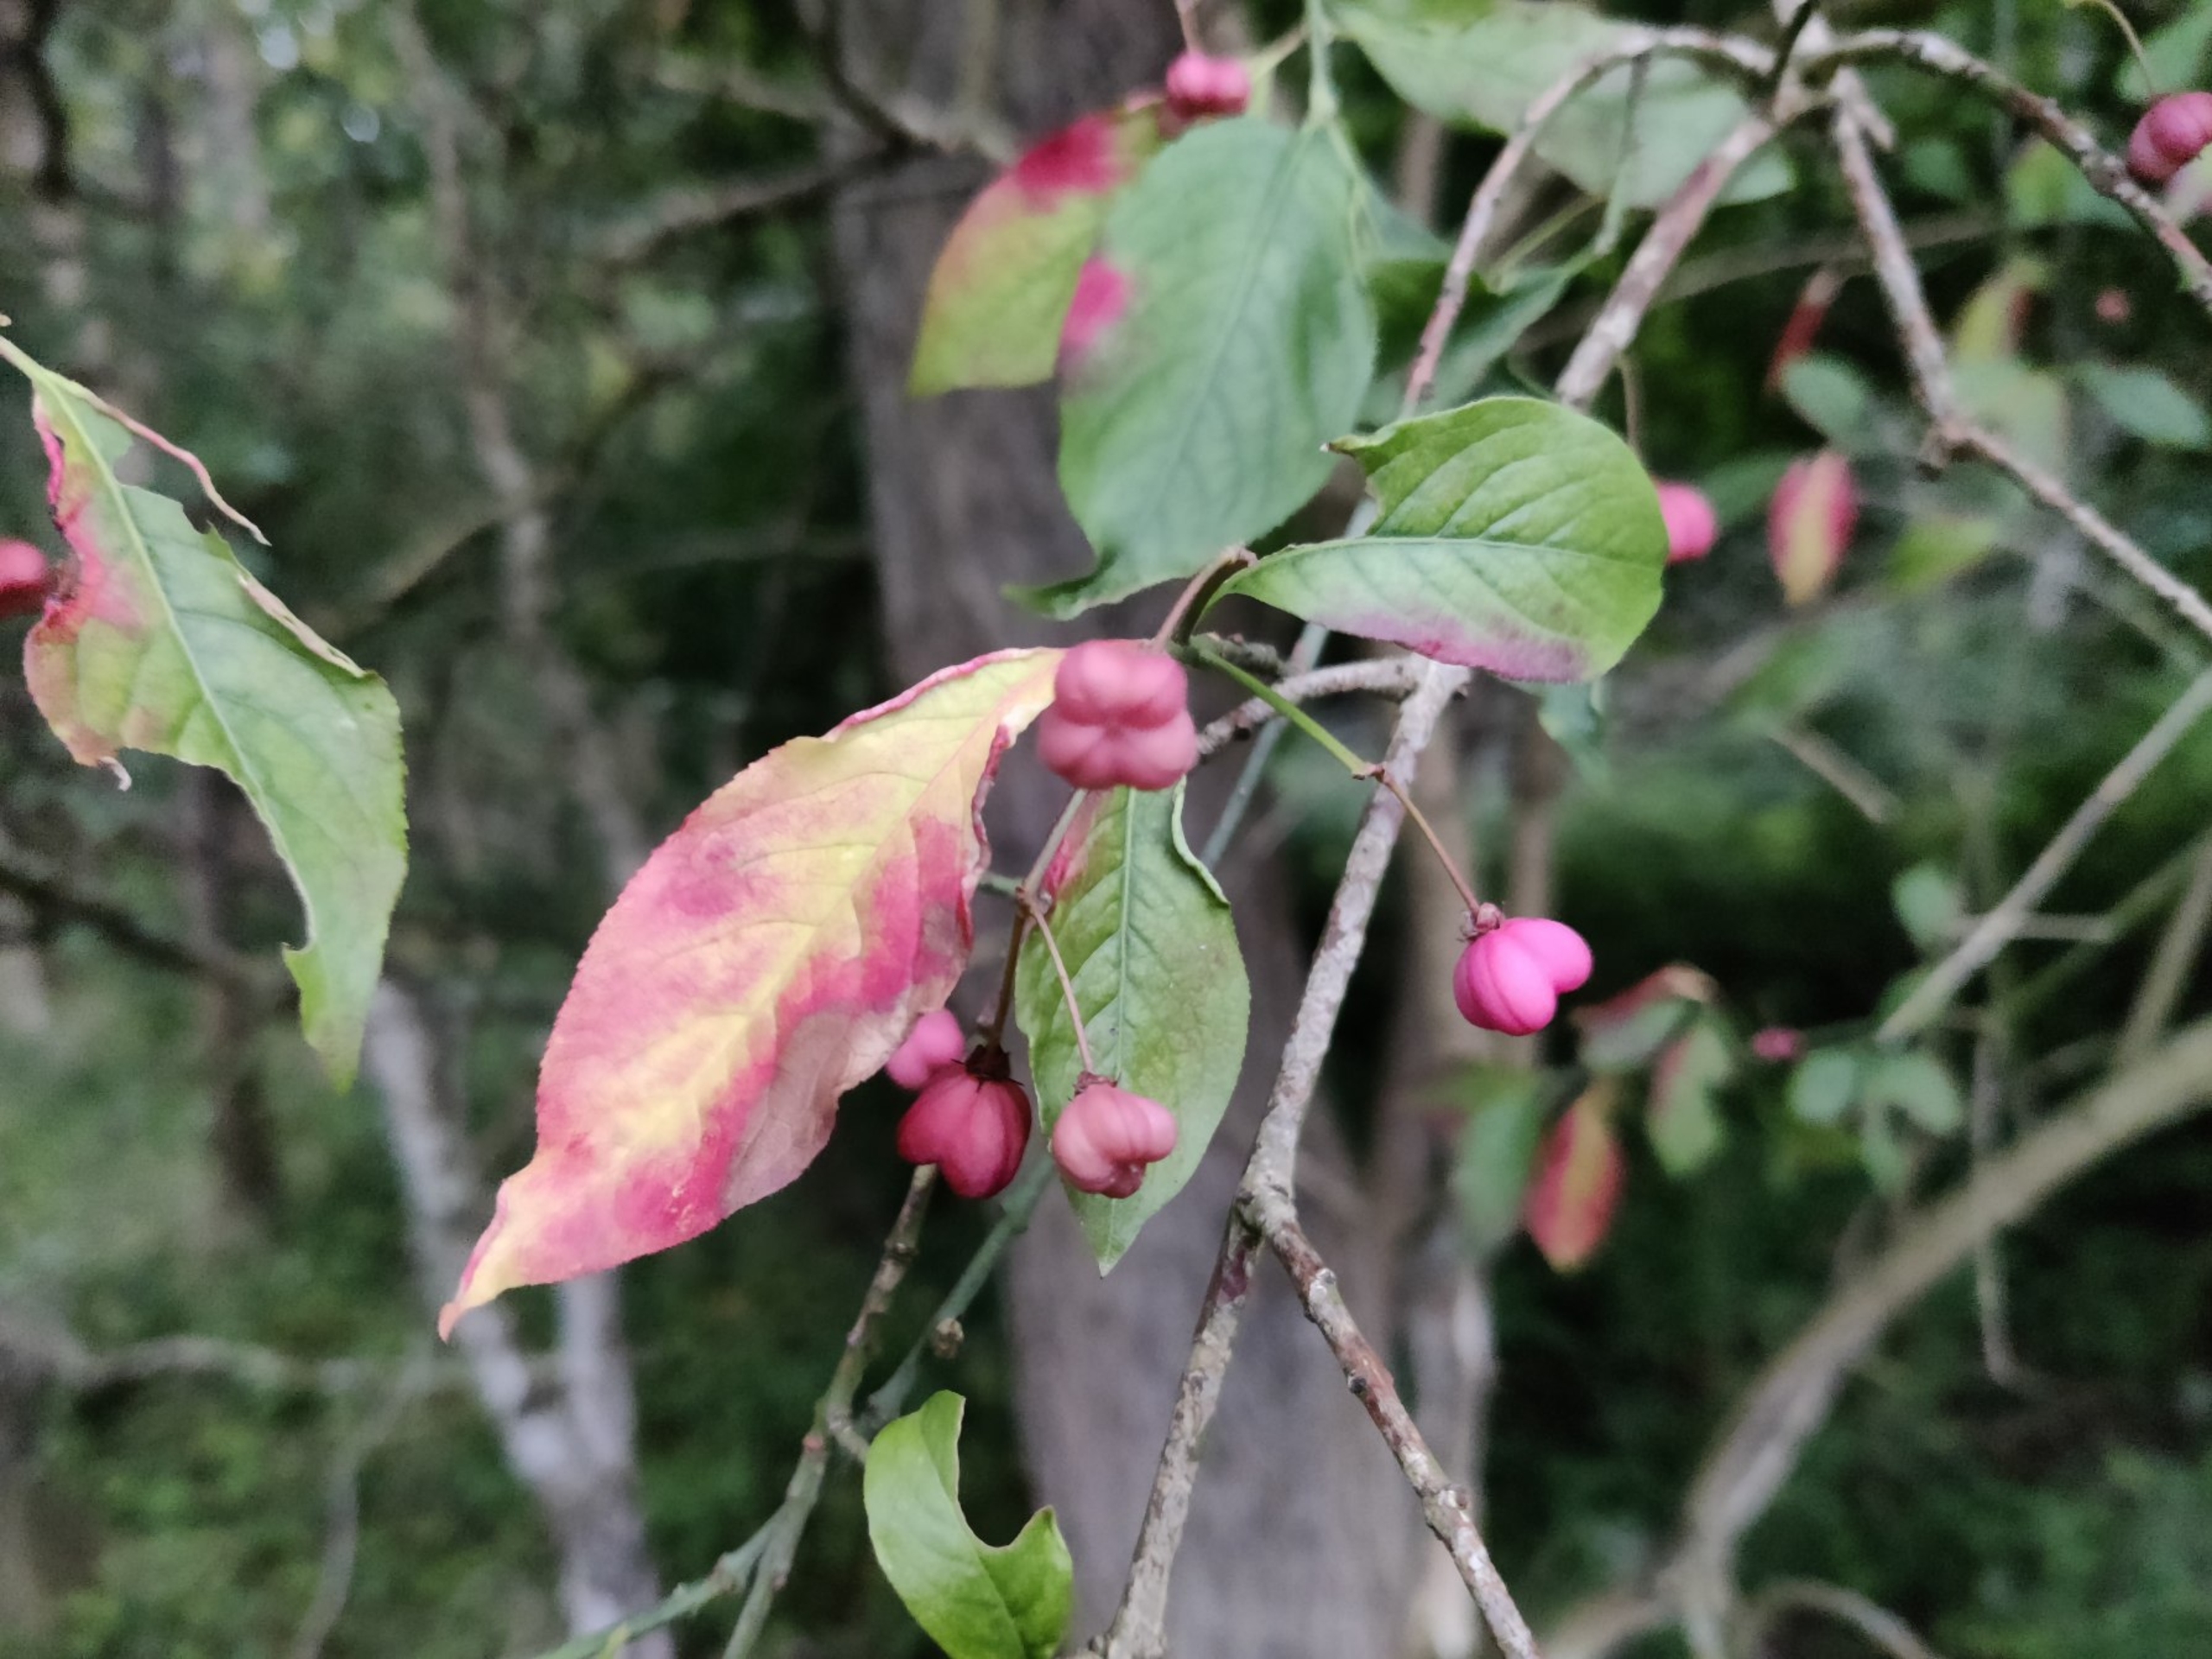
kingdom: Plantae
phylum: Tracheophyta
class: Magnoliopsida
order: Celastrales
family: Celastraceae
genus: Euonymus
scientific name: Euonymus europaeus
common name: Benved
